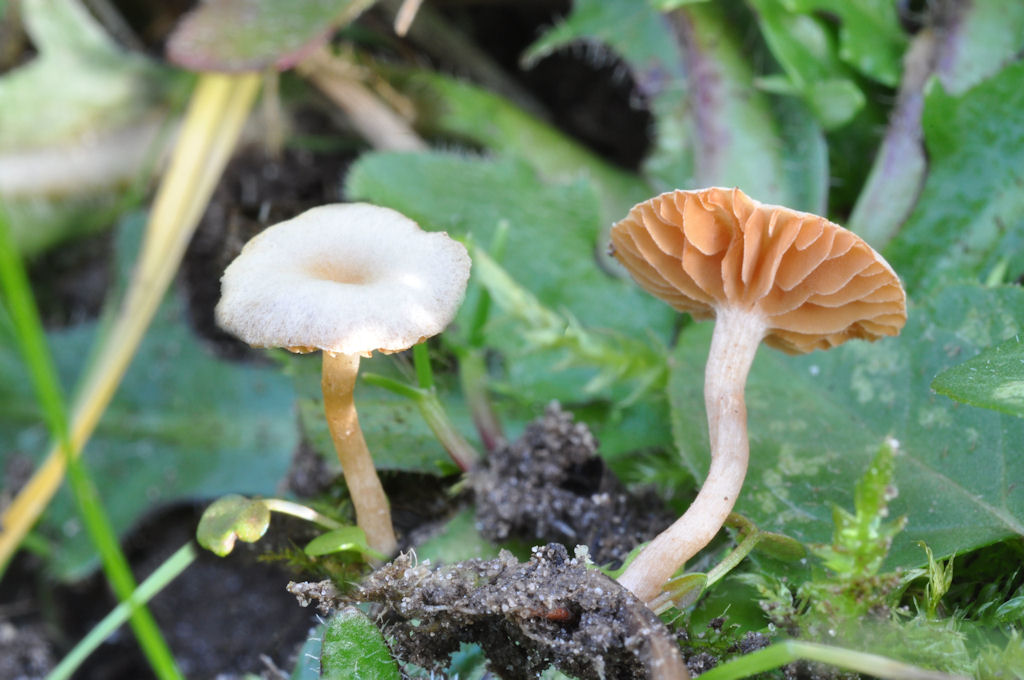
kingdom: Fungi
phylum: Basidiomycota
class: Agaricomycetes
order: Agaricales
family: Tubariaceae
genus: Tubaria
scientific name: Tubaria furfuracea
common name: kliddet fnughat
